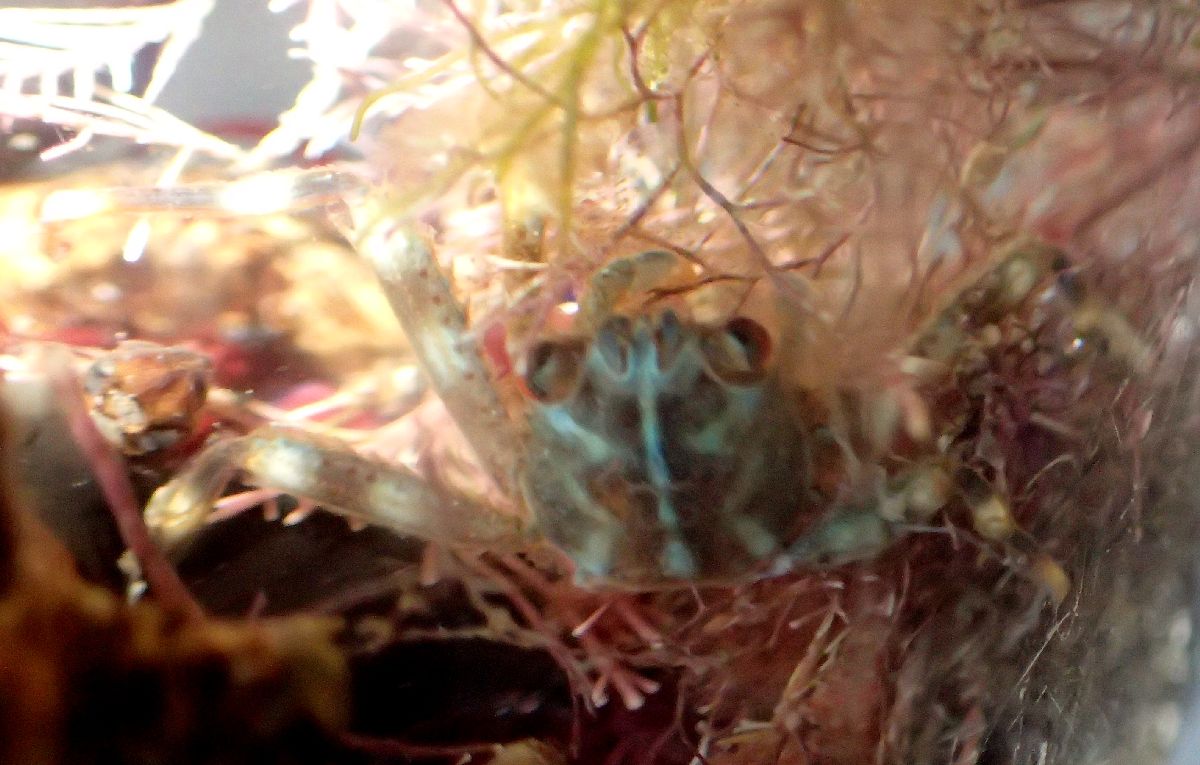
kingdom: Animalia
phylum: Arthropoda
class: Malacostraca
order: Decapoda
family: Percnidae
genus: Percnon
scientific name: Percnon gibbesi
